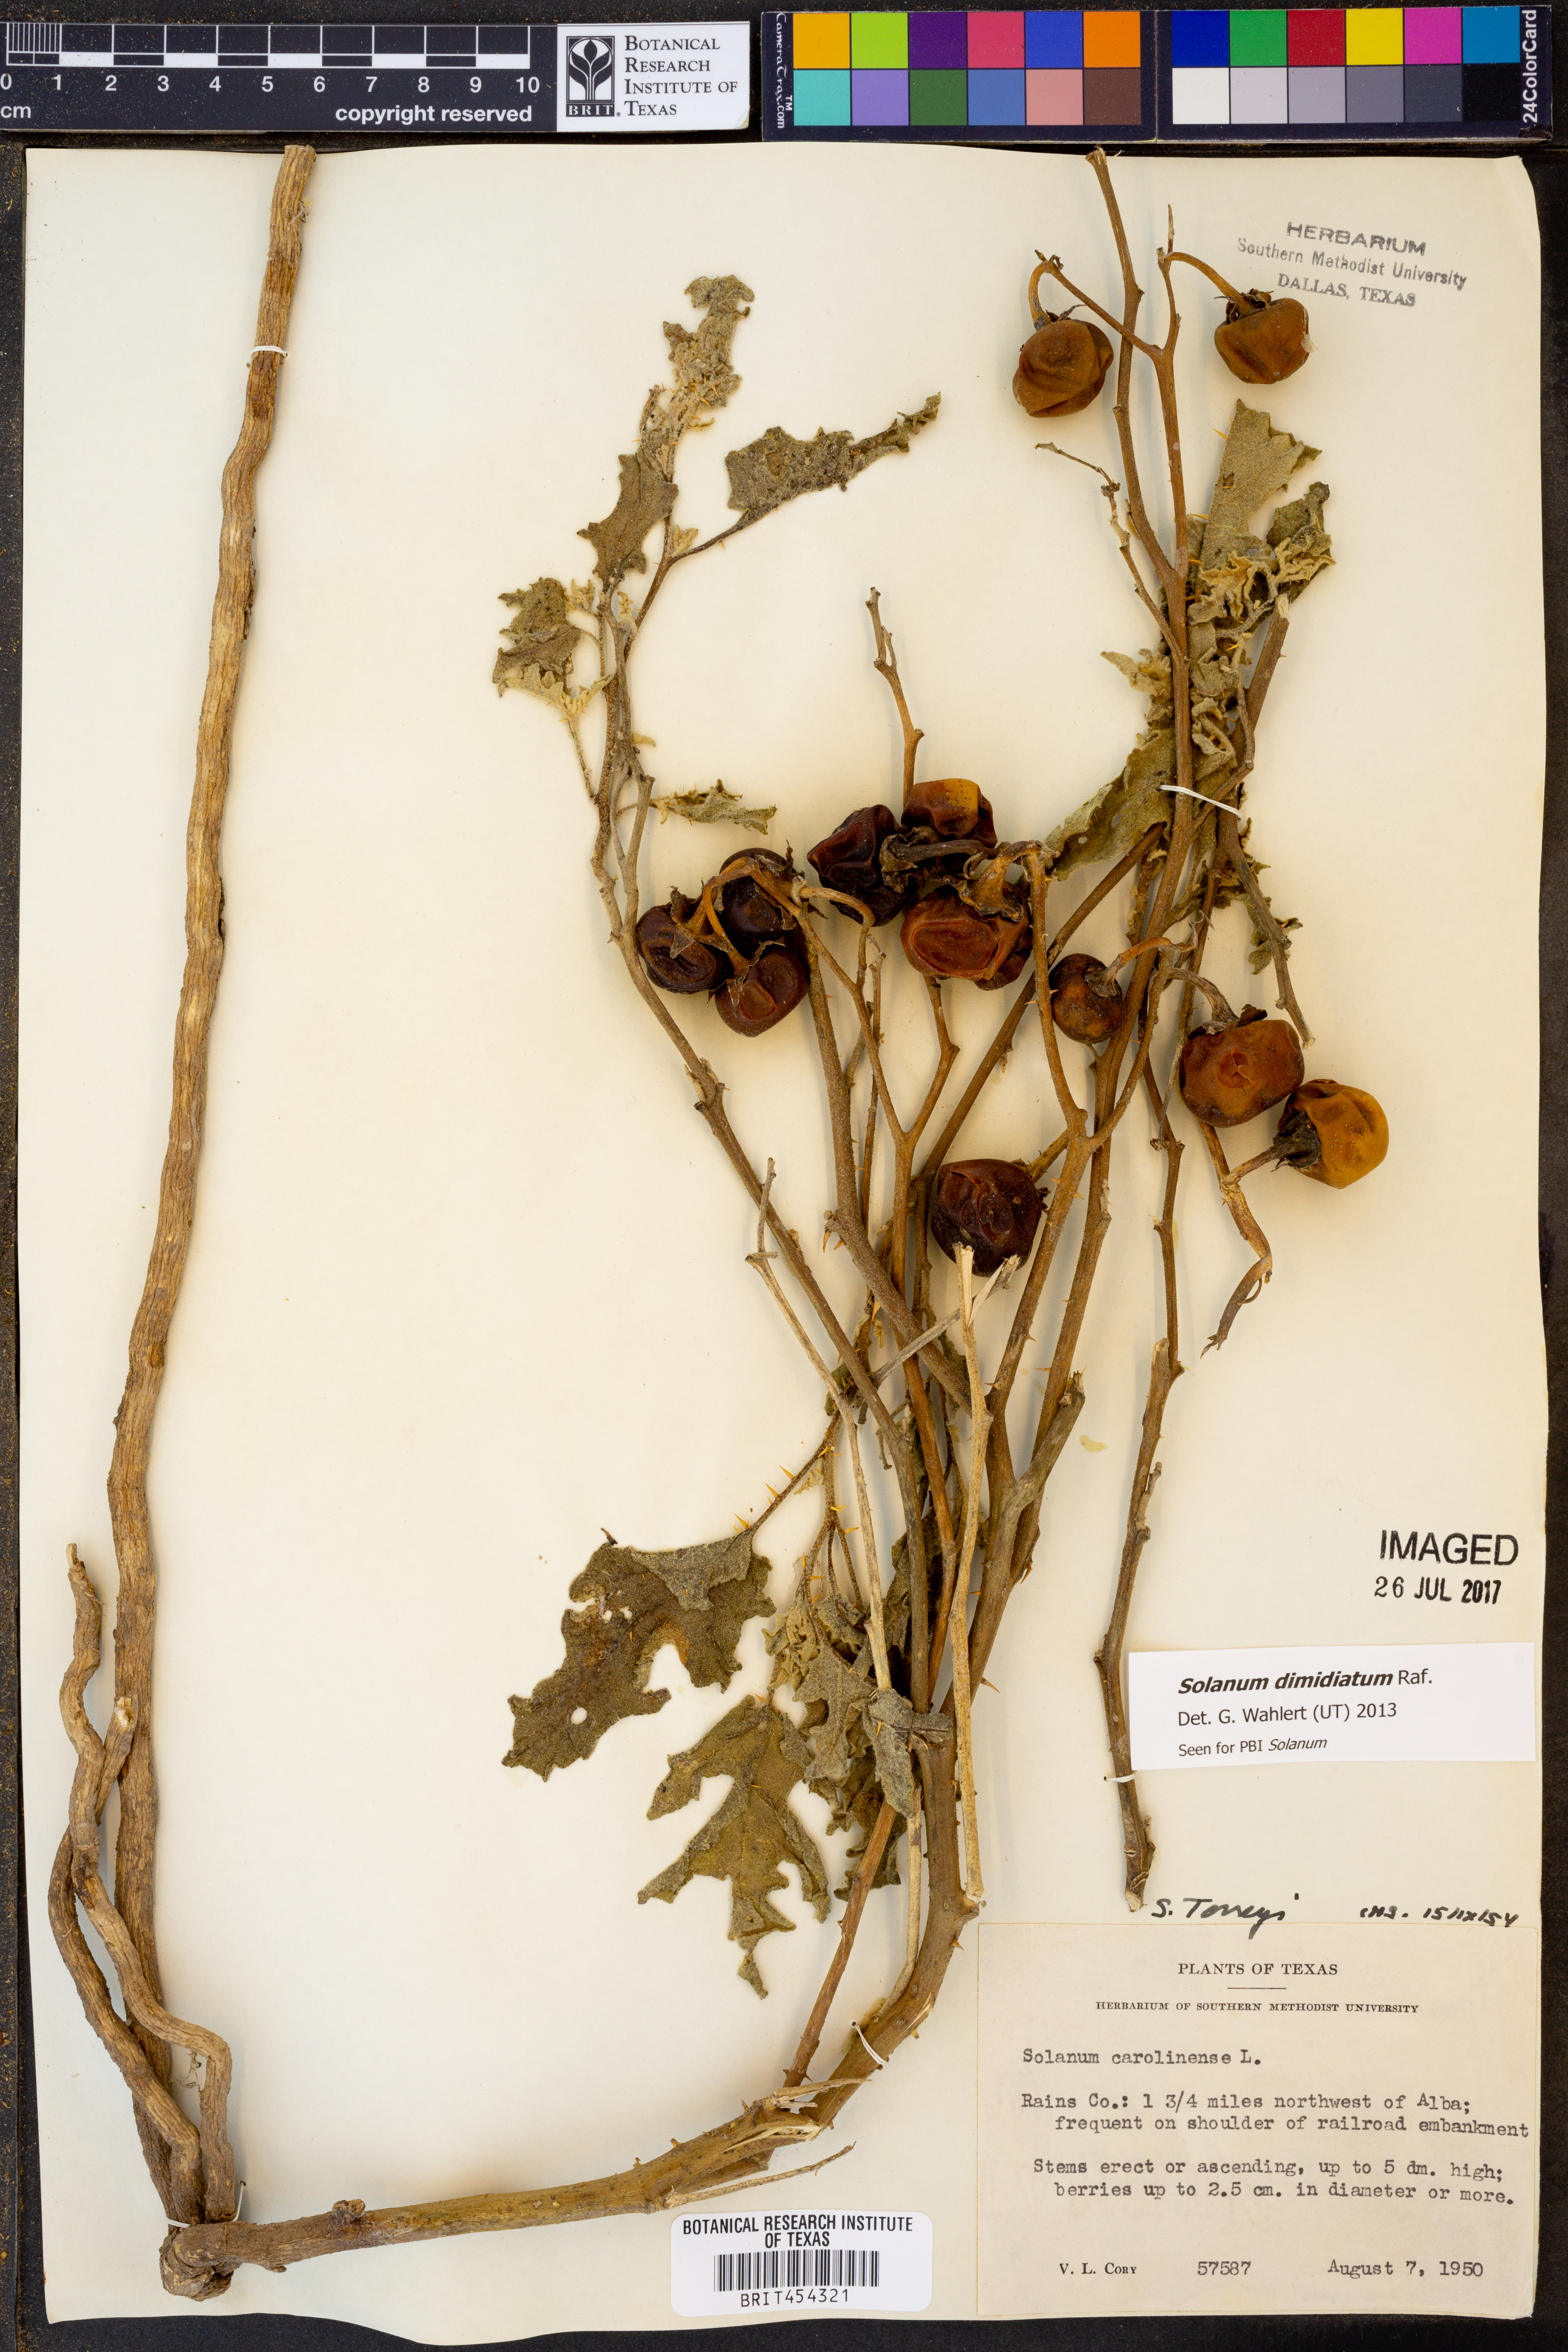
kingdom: Plantae
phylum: Tracheophyta
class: Magnoliopsida
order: Solanales
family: Solanaceae
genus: Solanum
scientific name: Solanum dimidiatum
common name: Carolina horse-nettle
